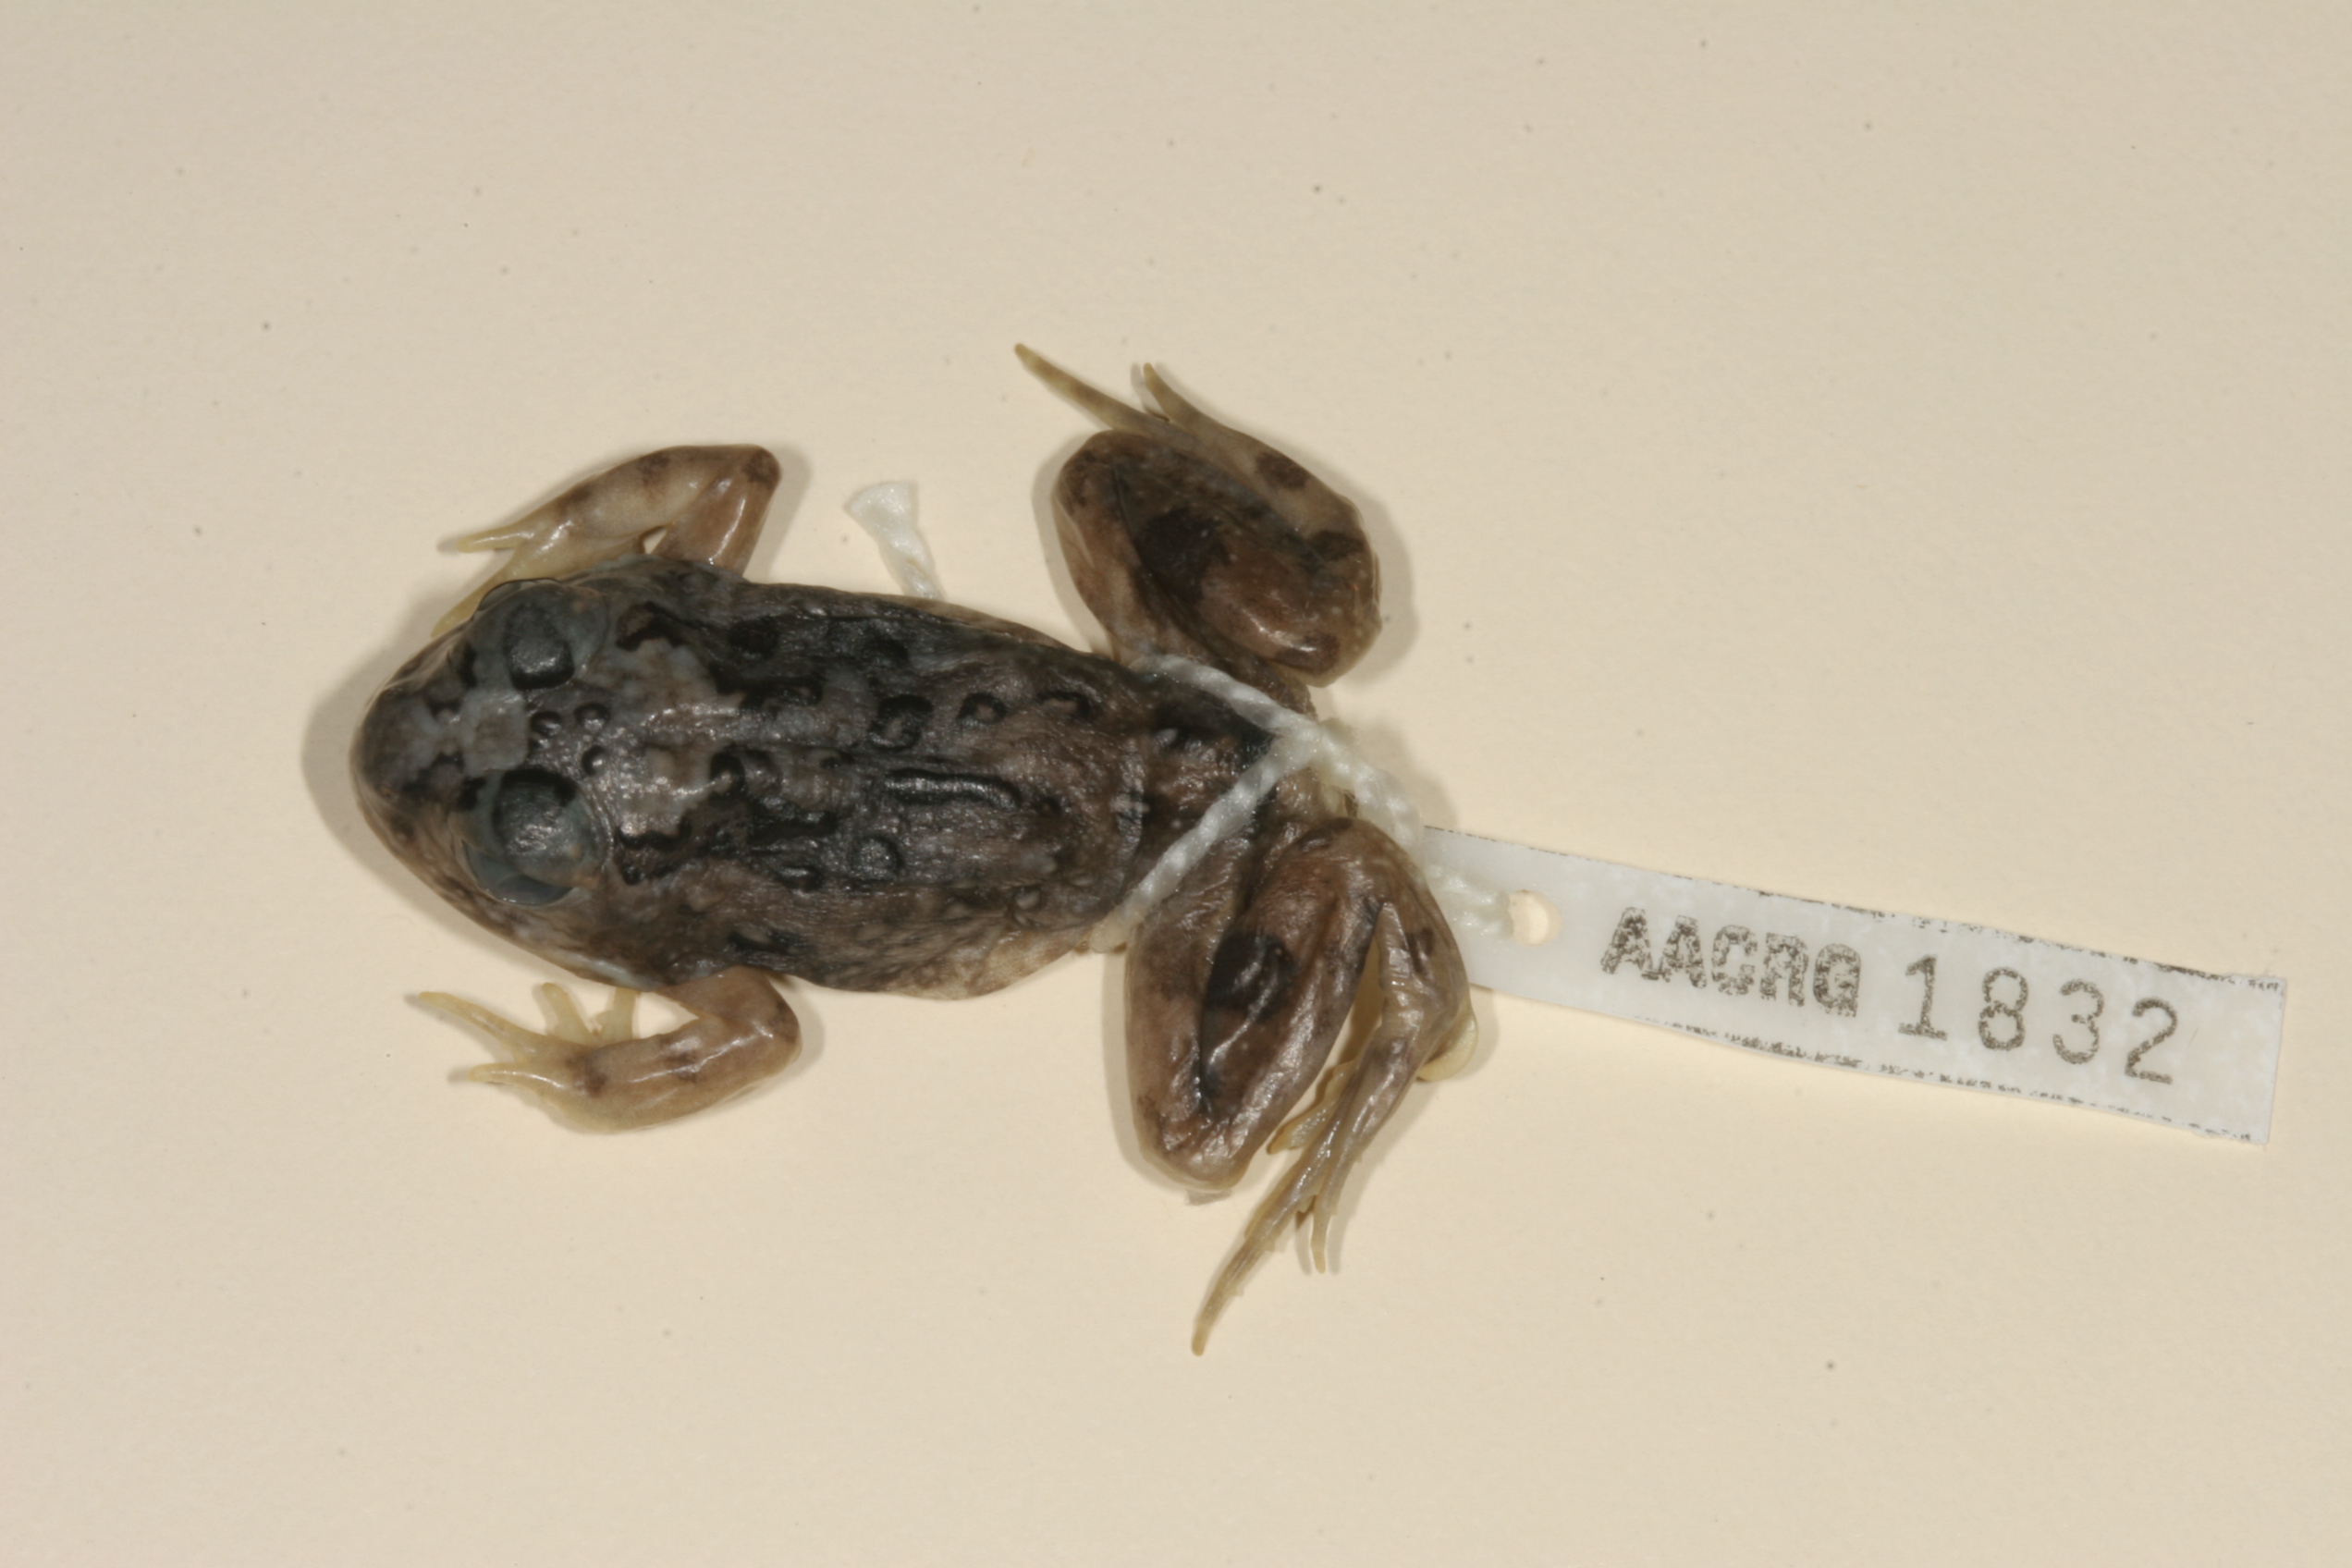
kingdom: Animalia
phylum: Chordata
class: Amphibia
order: Anura
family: Pyxicephalidae
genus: Tomopterna
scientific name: Tomopterna krugerensis
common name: Knocking sand frog
